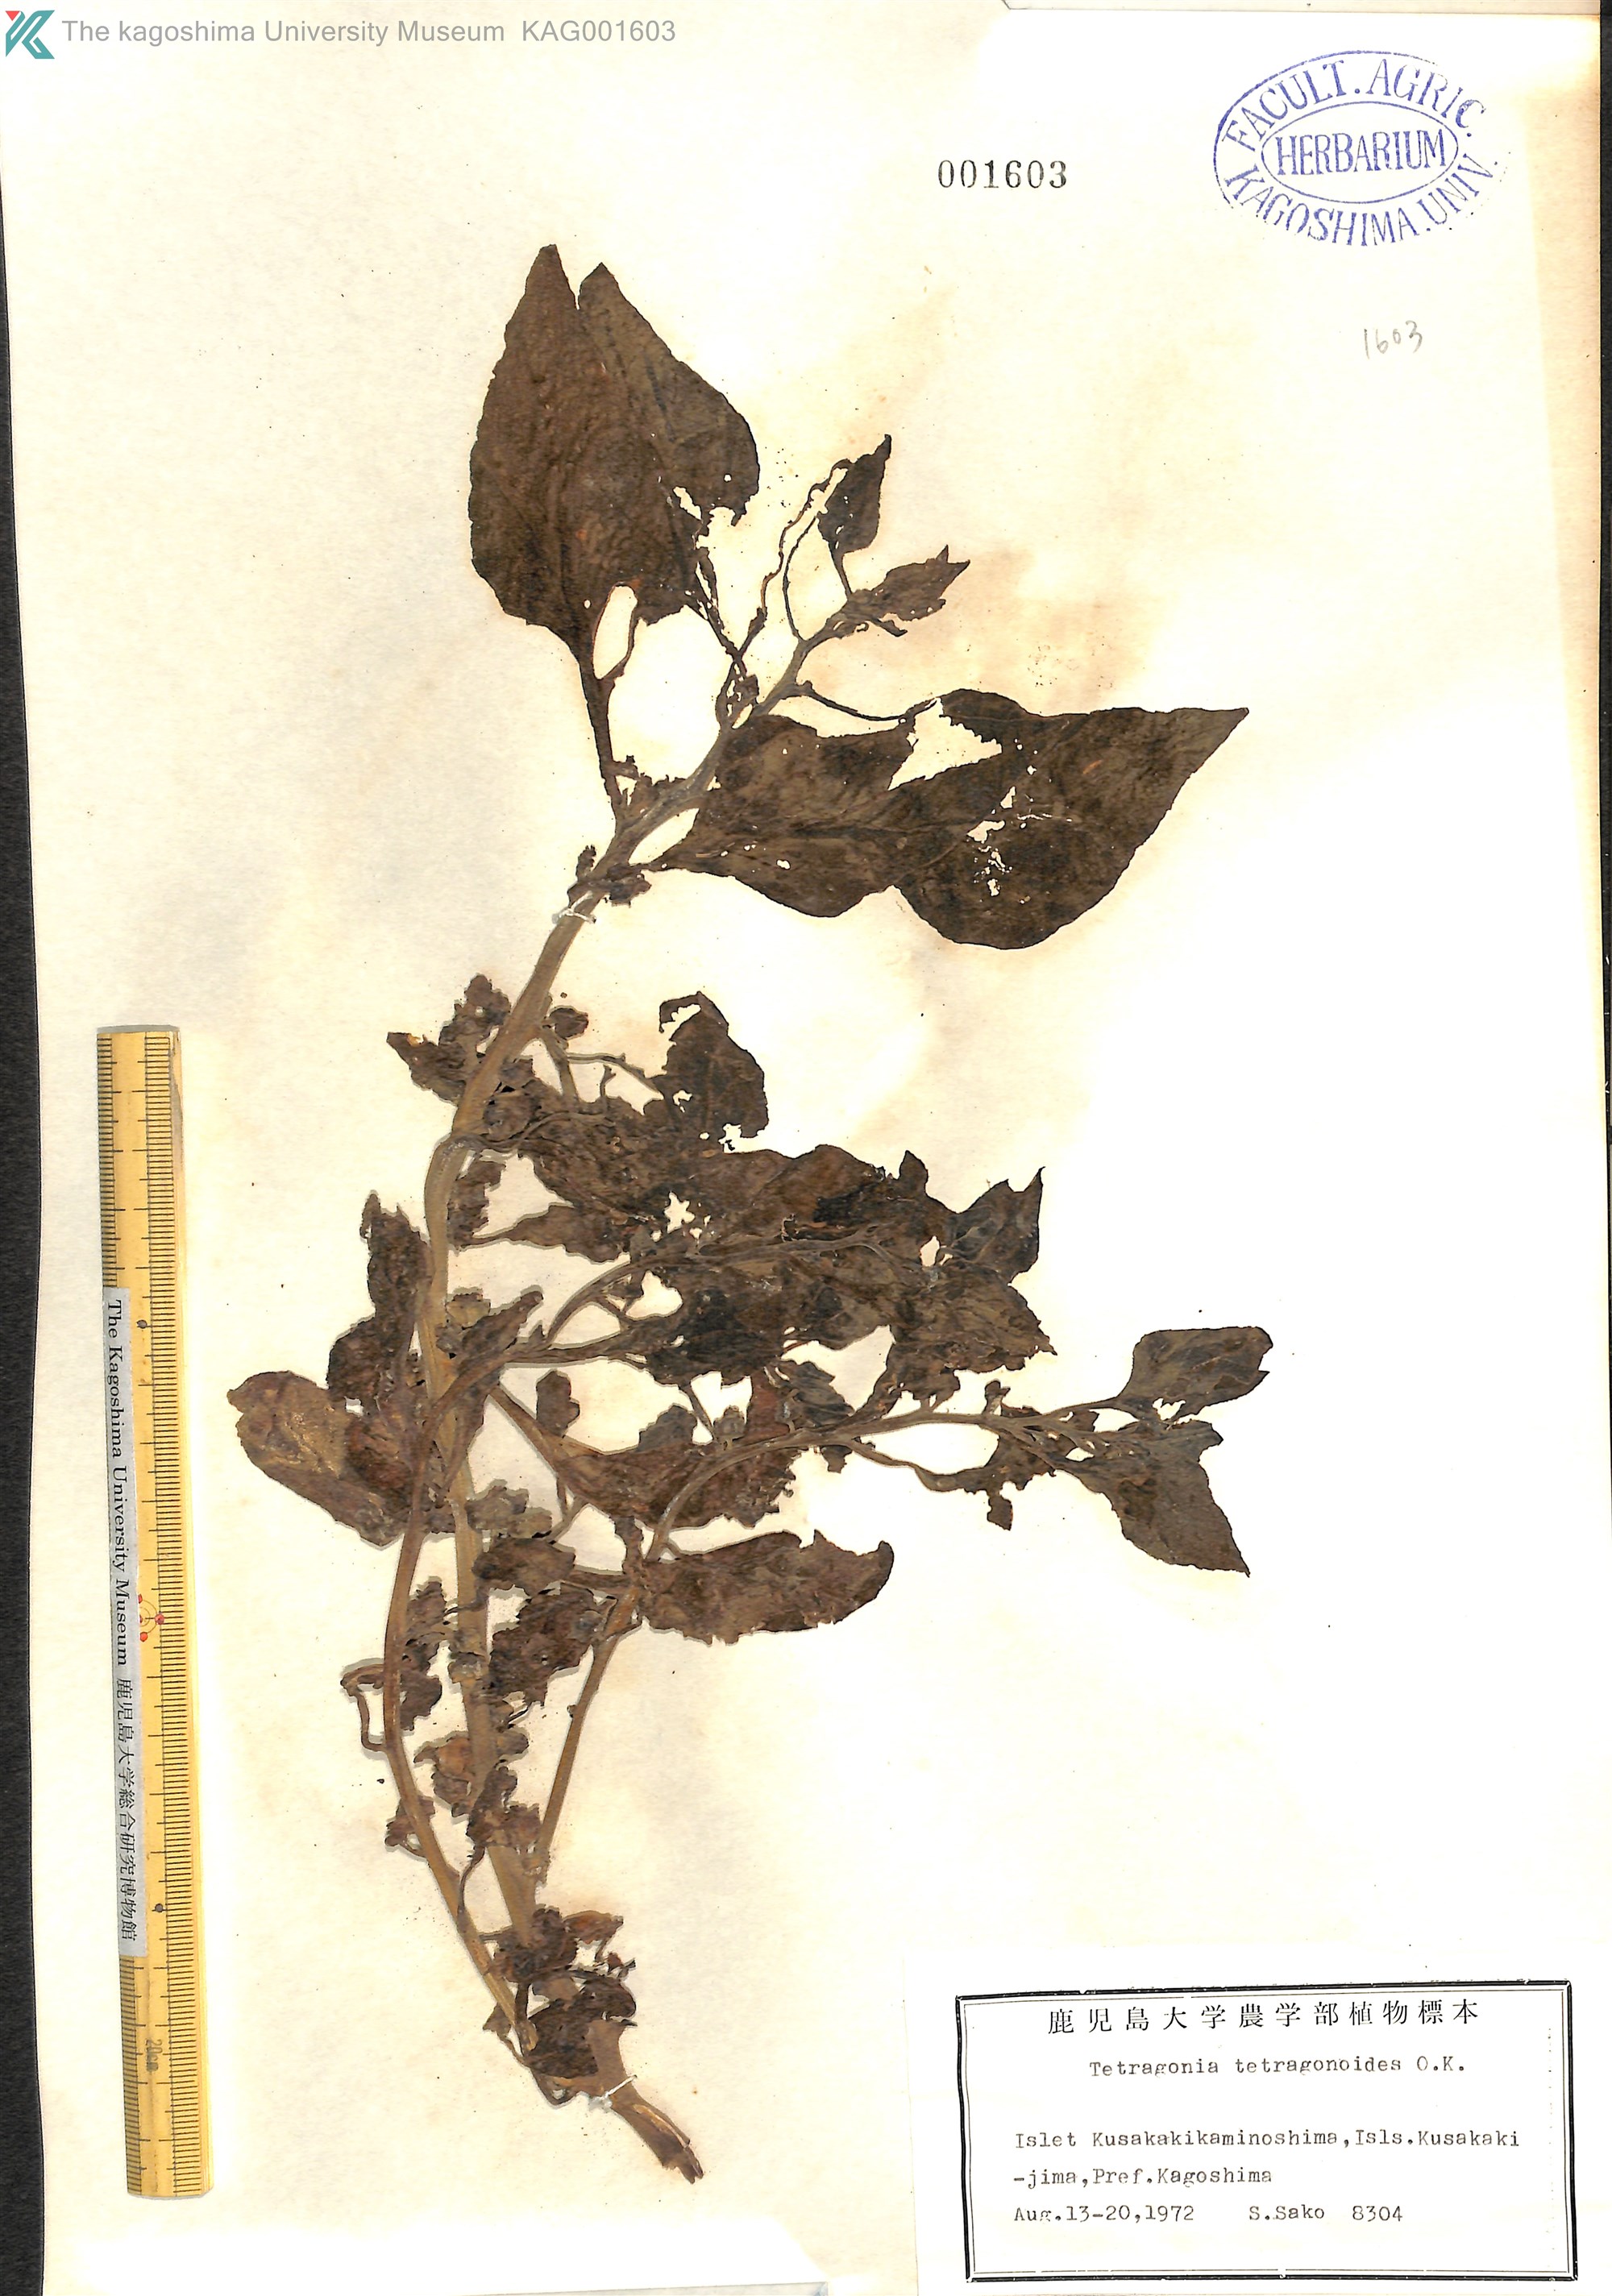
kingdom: Plantae
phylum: Tracheophyta
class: Magnoliopsida
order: Caryophyllales
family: Aizoaceae
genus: Tetragonia
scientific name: Tetragonia tetragonoides
